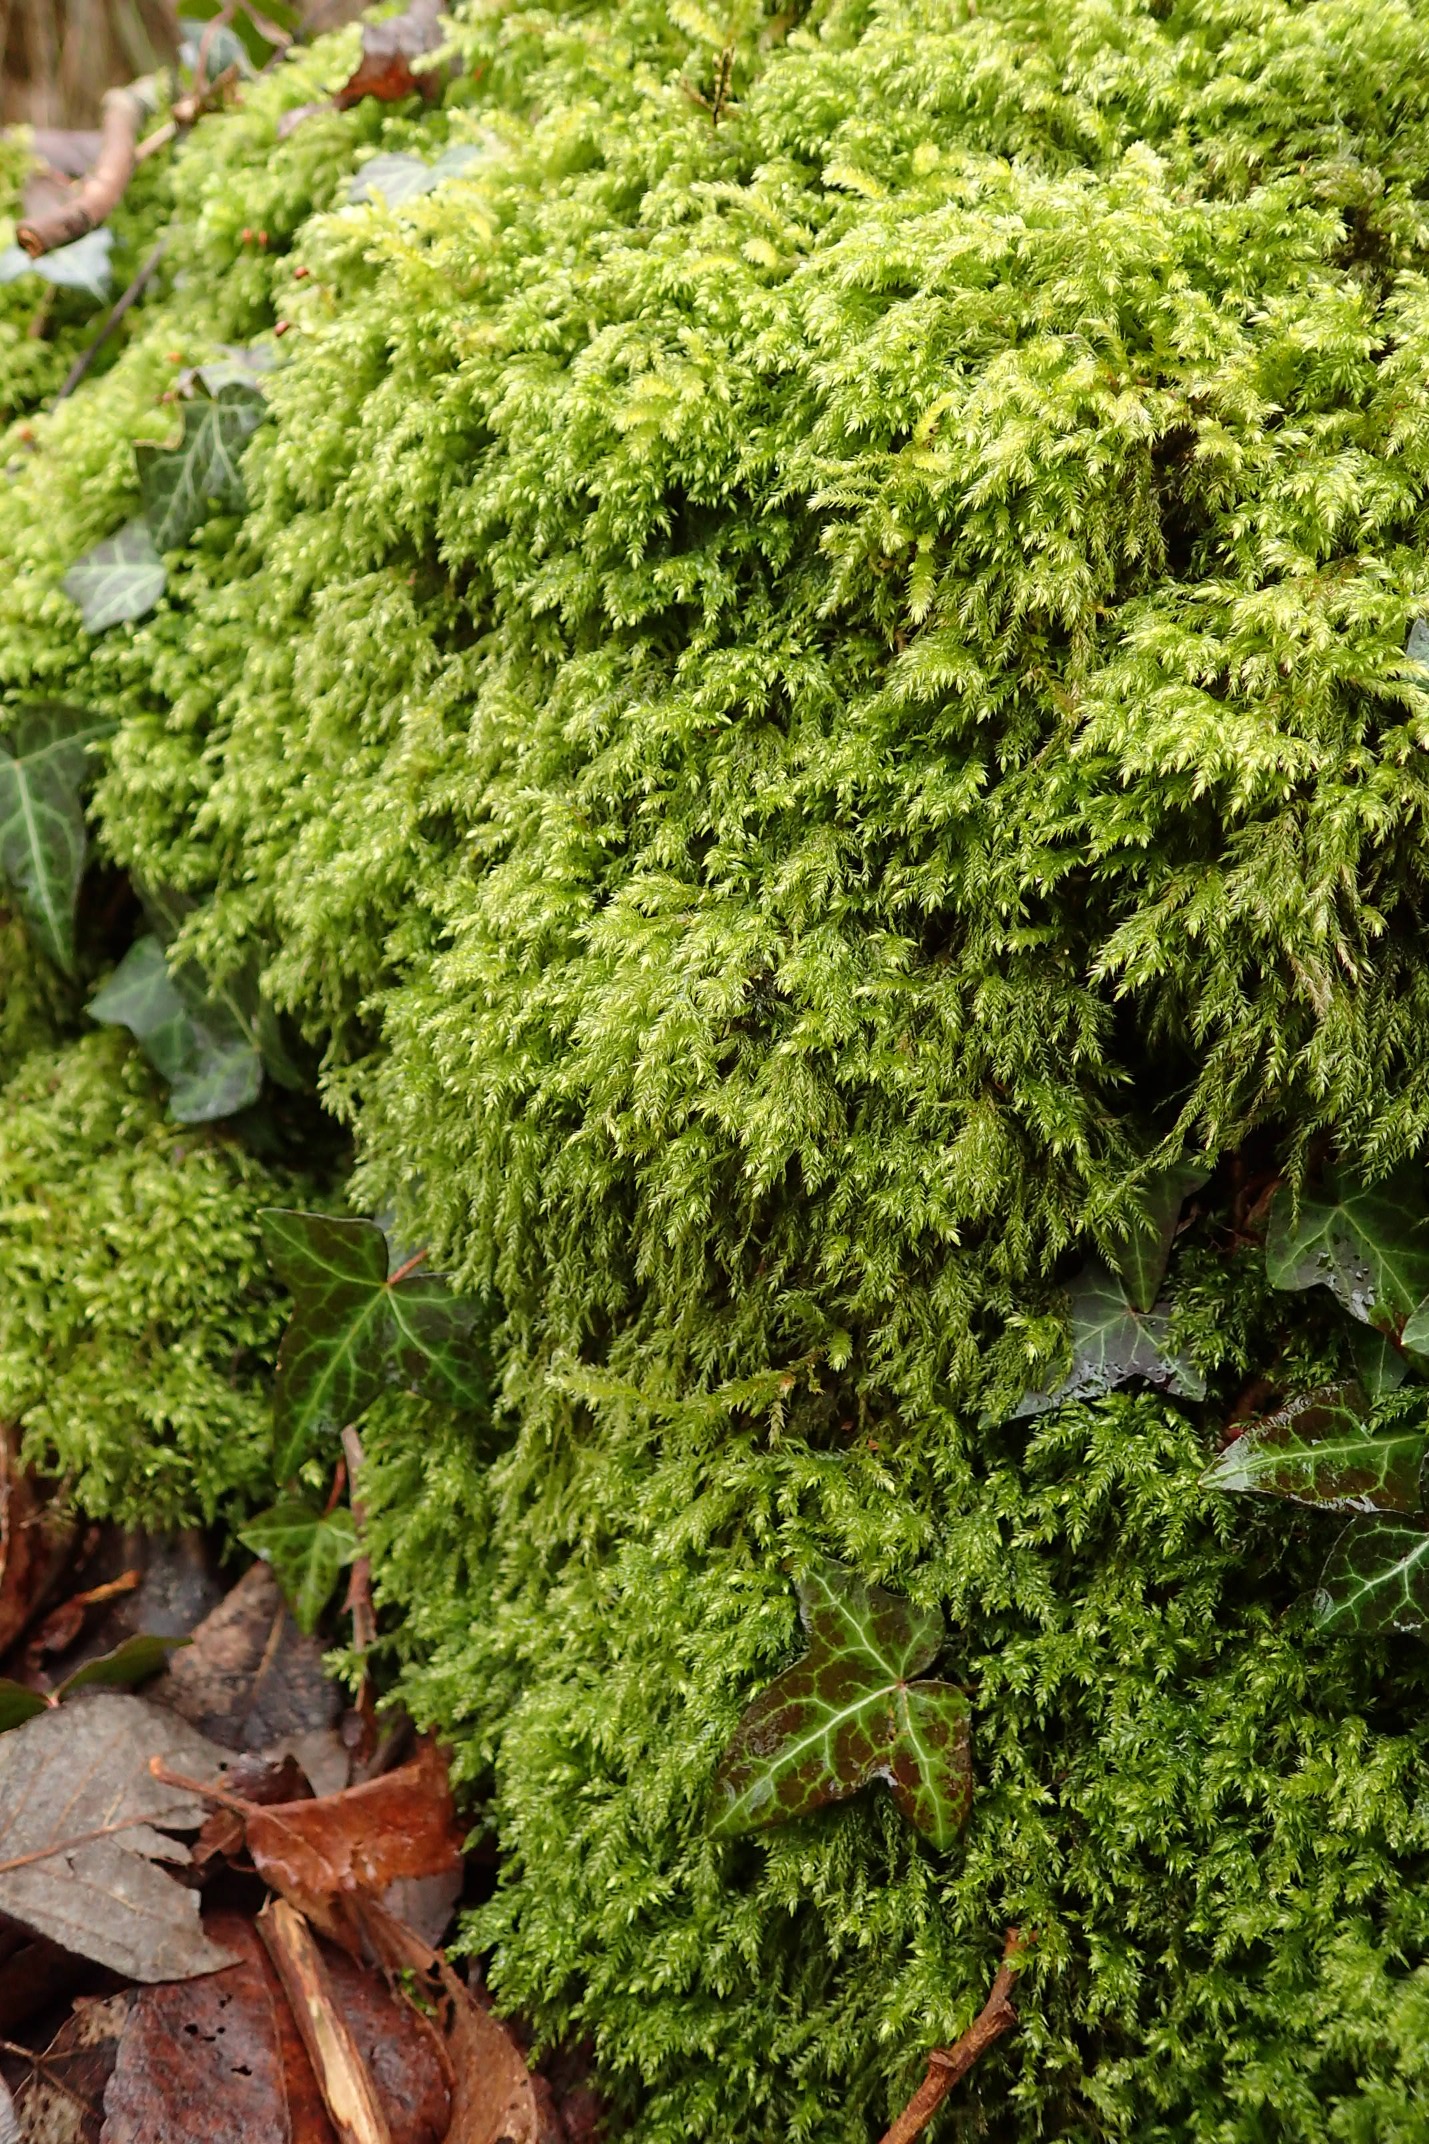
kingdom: Plantae
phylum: Bryophyta
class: Bryopsida
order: Hypnales
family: Lembophyllaceae
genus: Pseudisothecium
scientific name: Pseudisothecium myosuroides
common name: Slank stammemos
